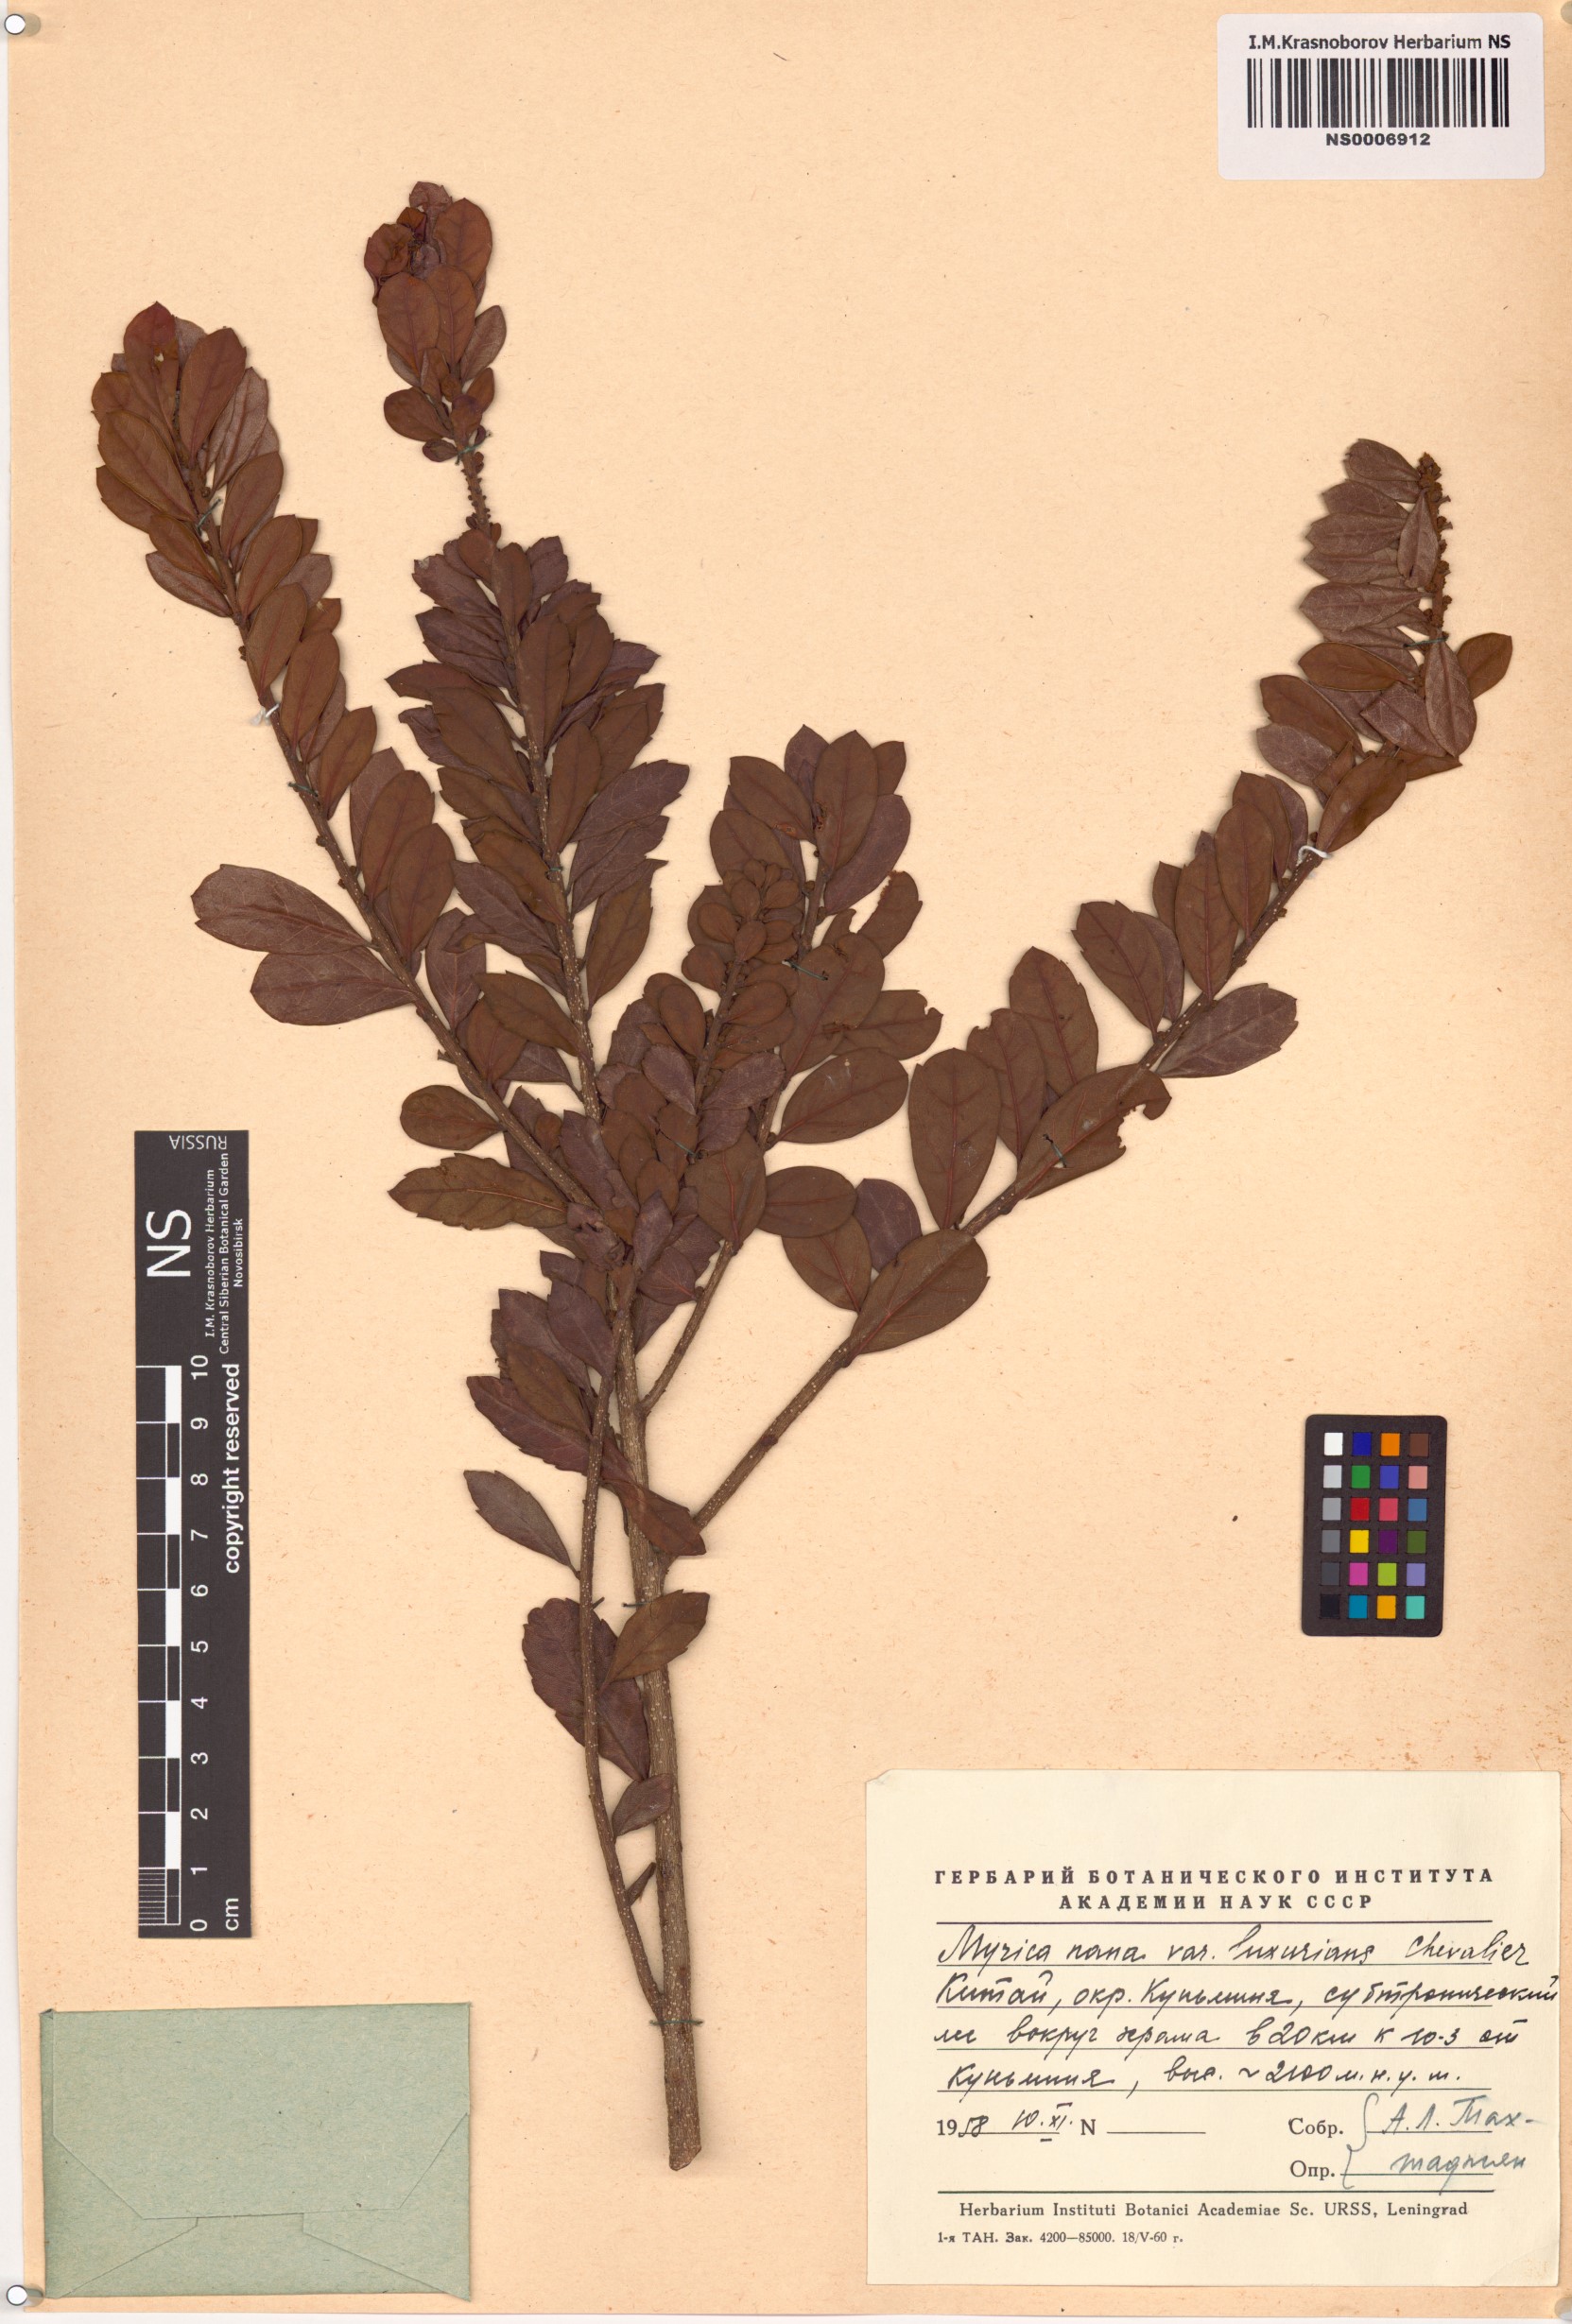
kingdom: Plantae
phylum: Tracheophyta
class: Magnoliopsida
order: Fagales
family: Myricaceae
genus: Morella
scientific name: Morella nana
